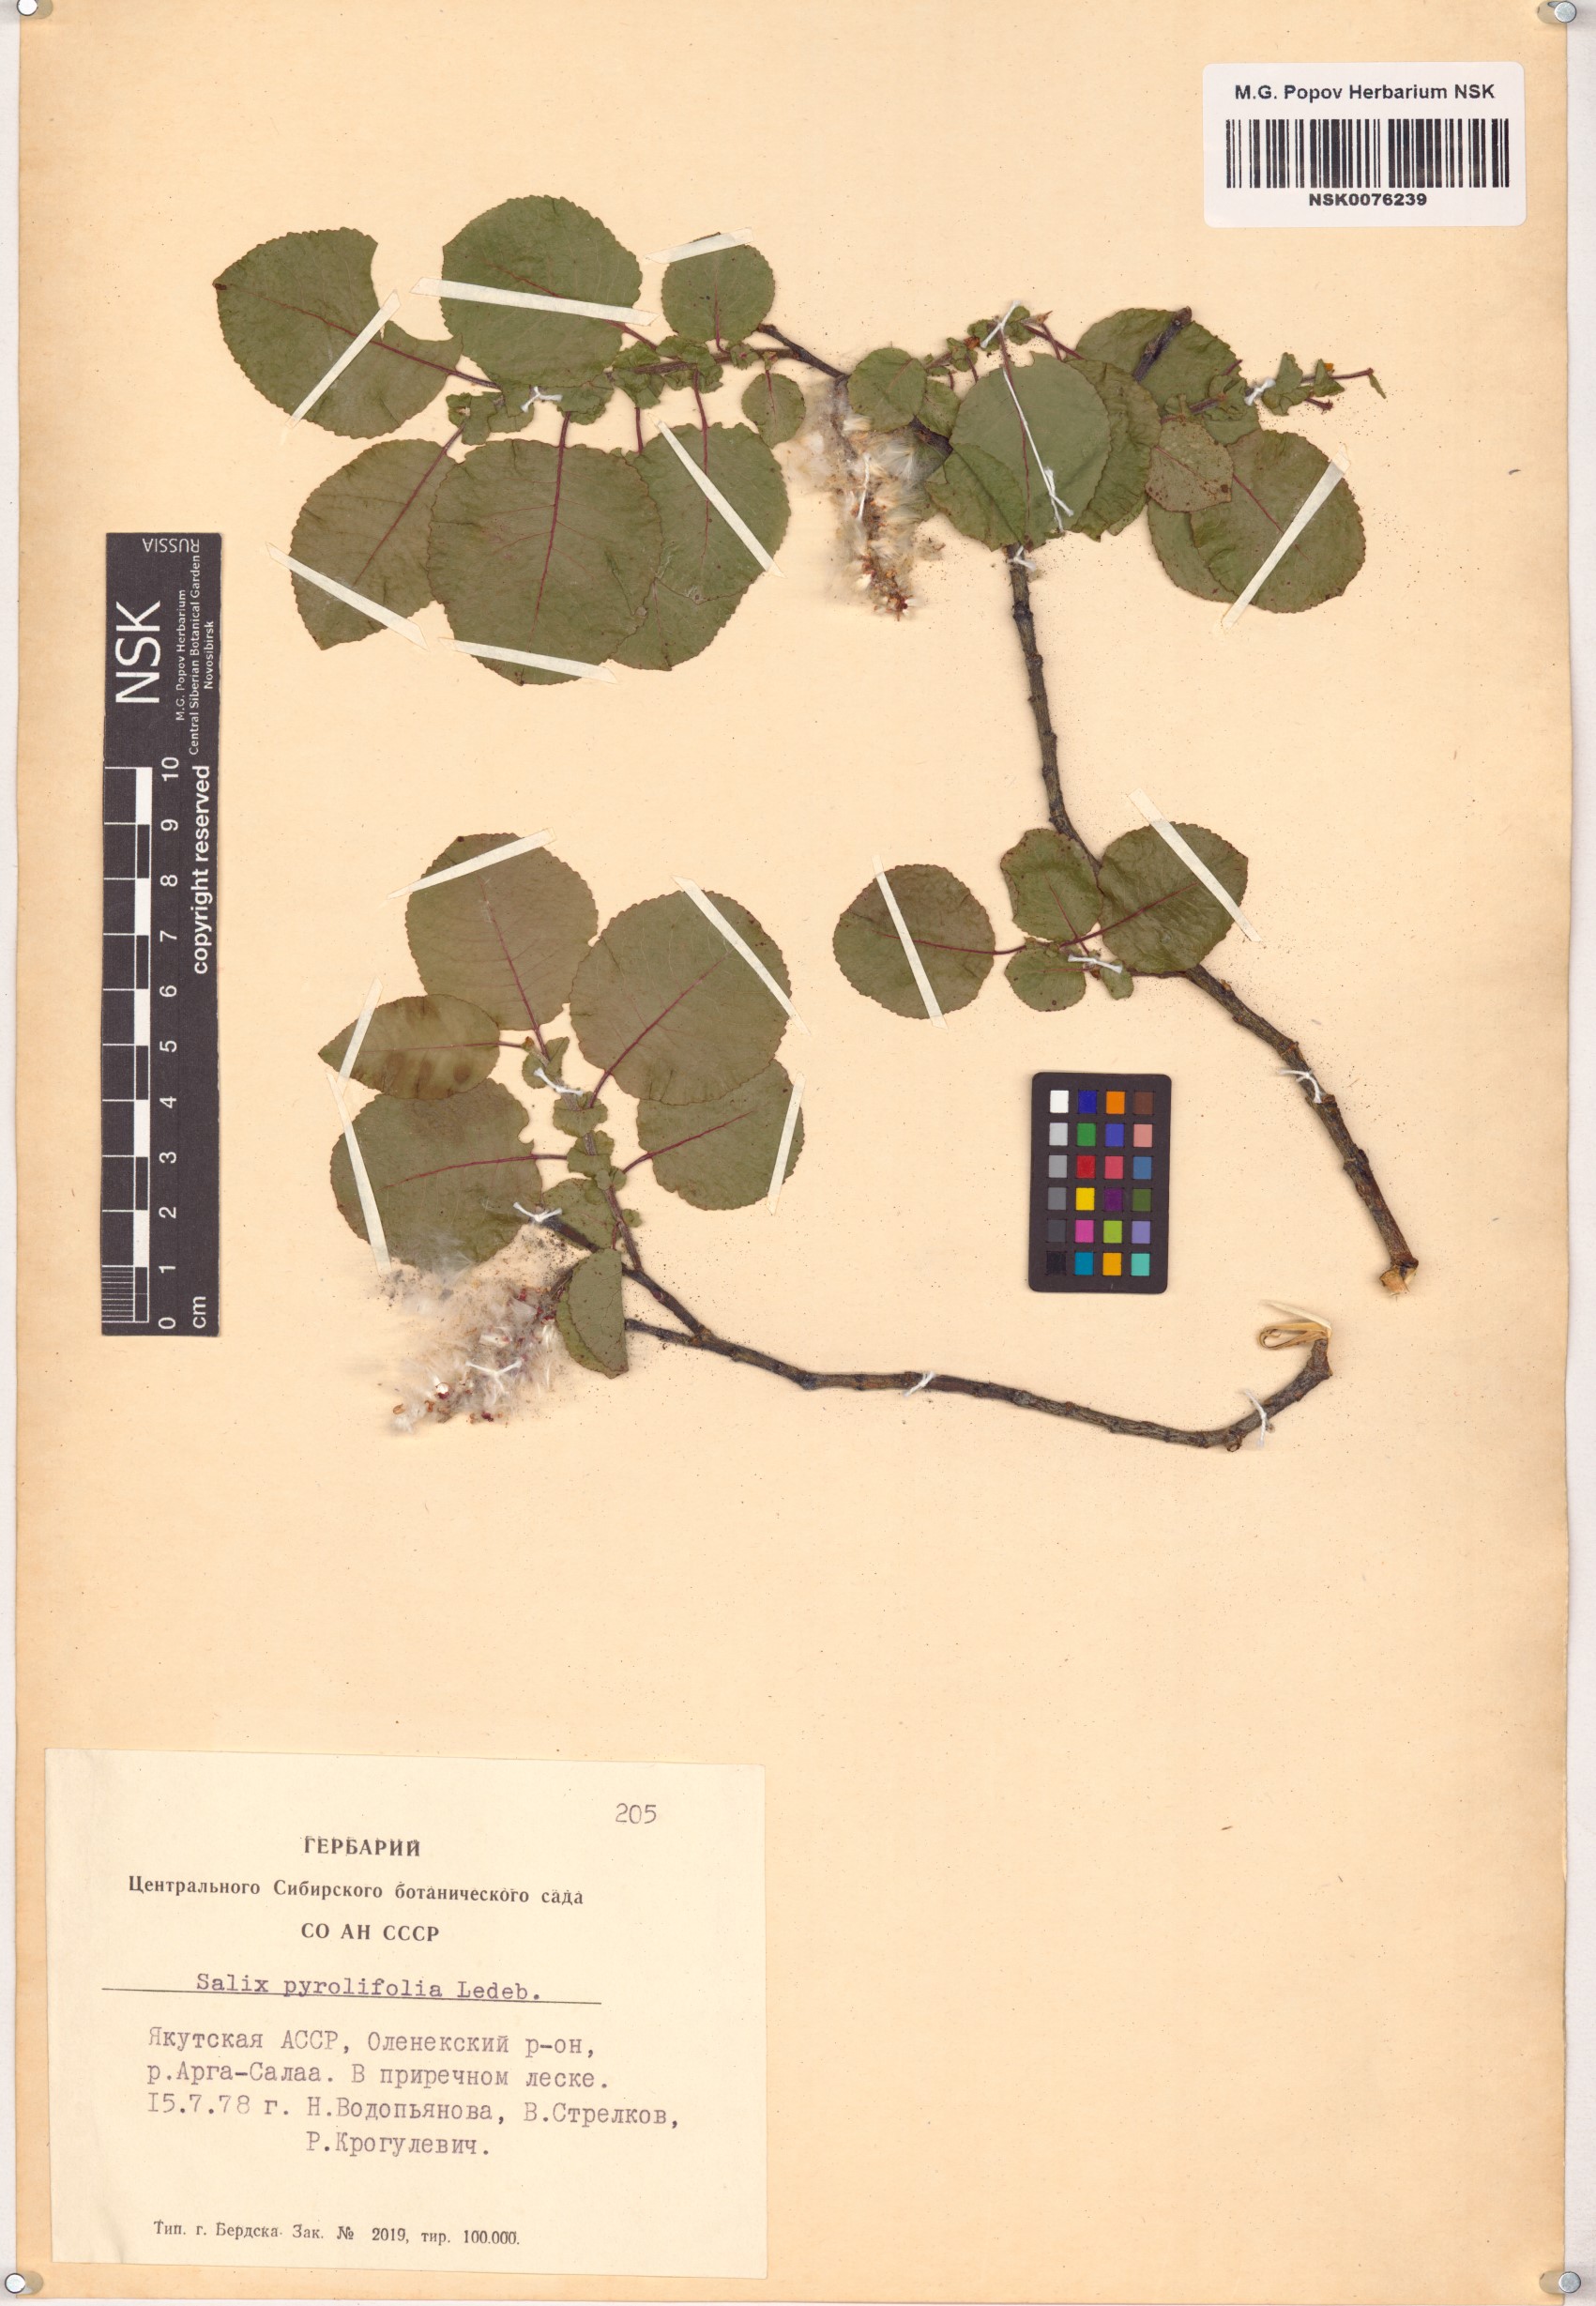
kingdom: Plantae
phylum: Tracheophyta
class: Magnoliopsida
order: Malpighiales
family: Salicaceae
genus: Salix
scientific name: Salix pyrolifolia
